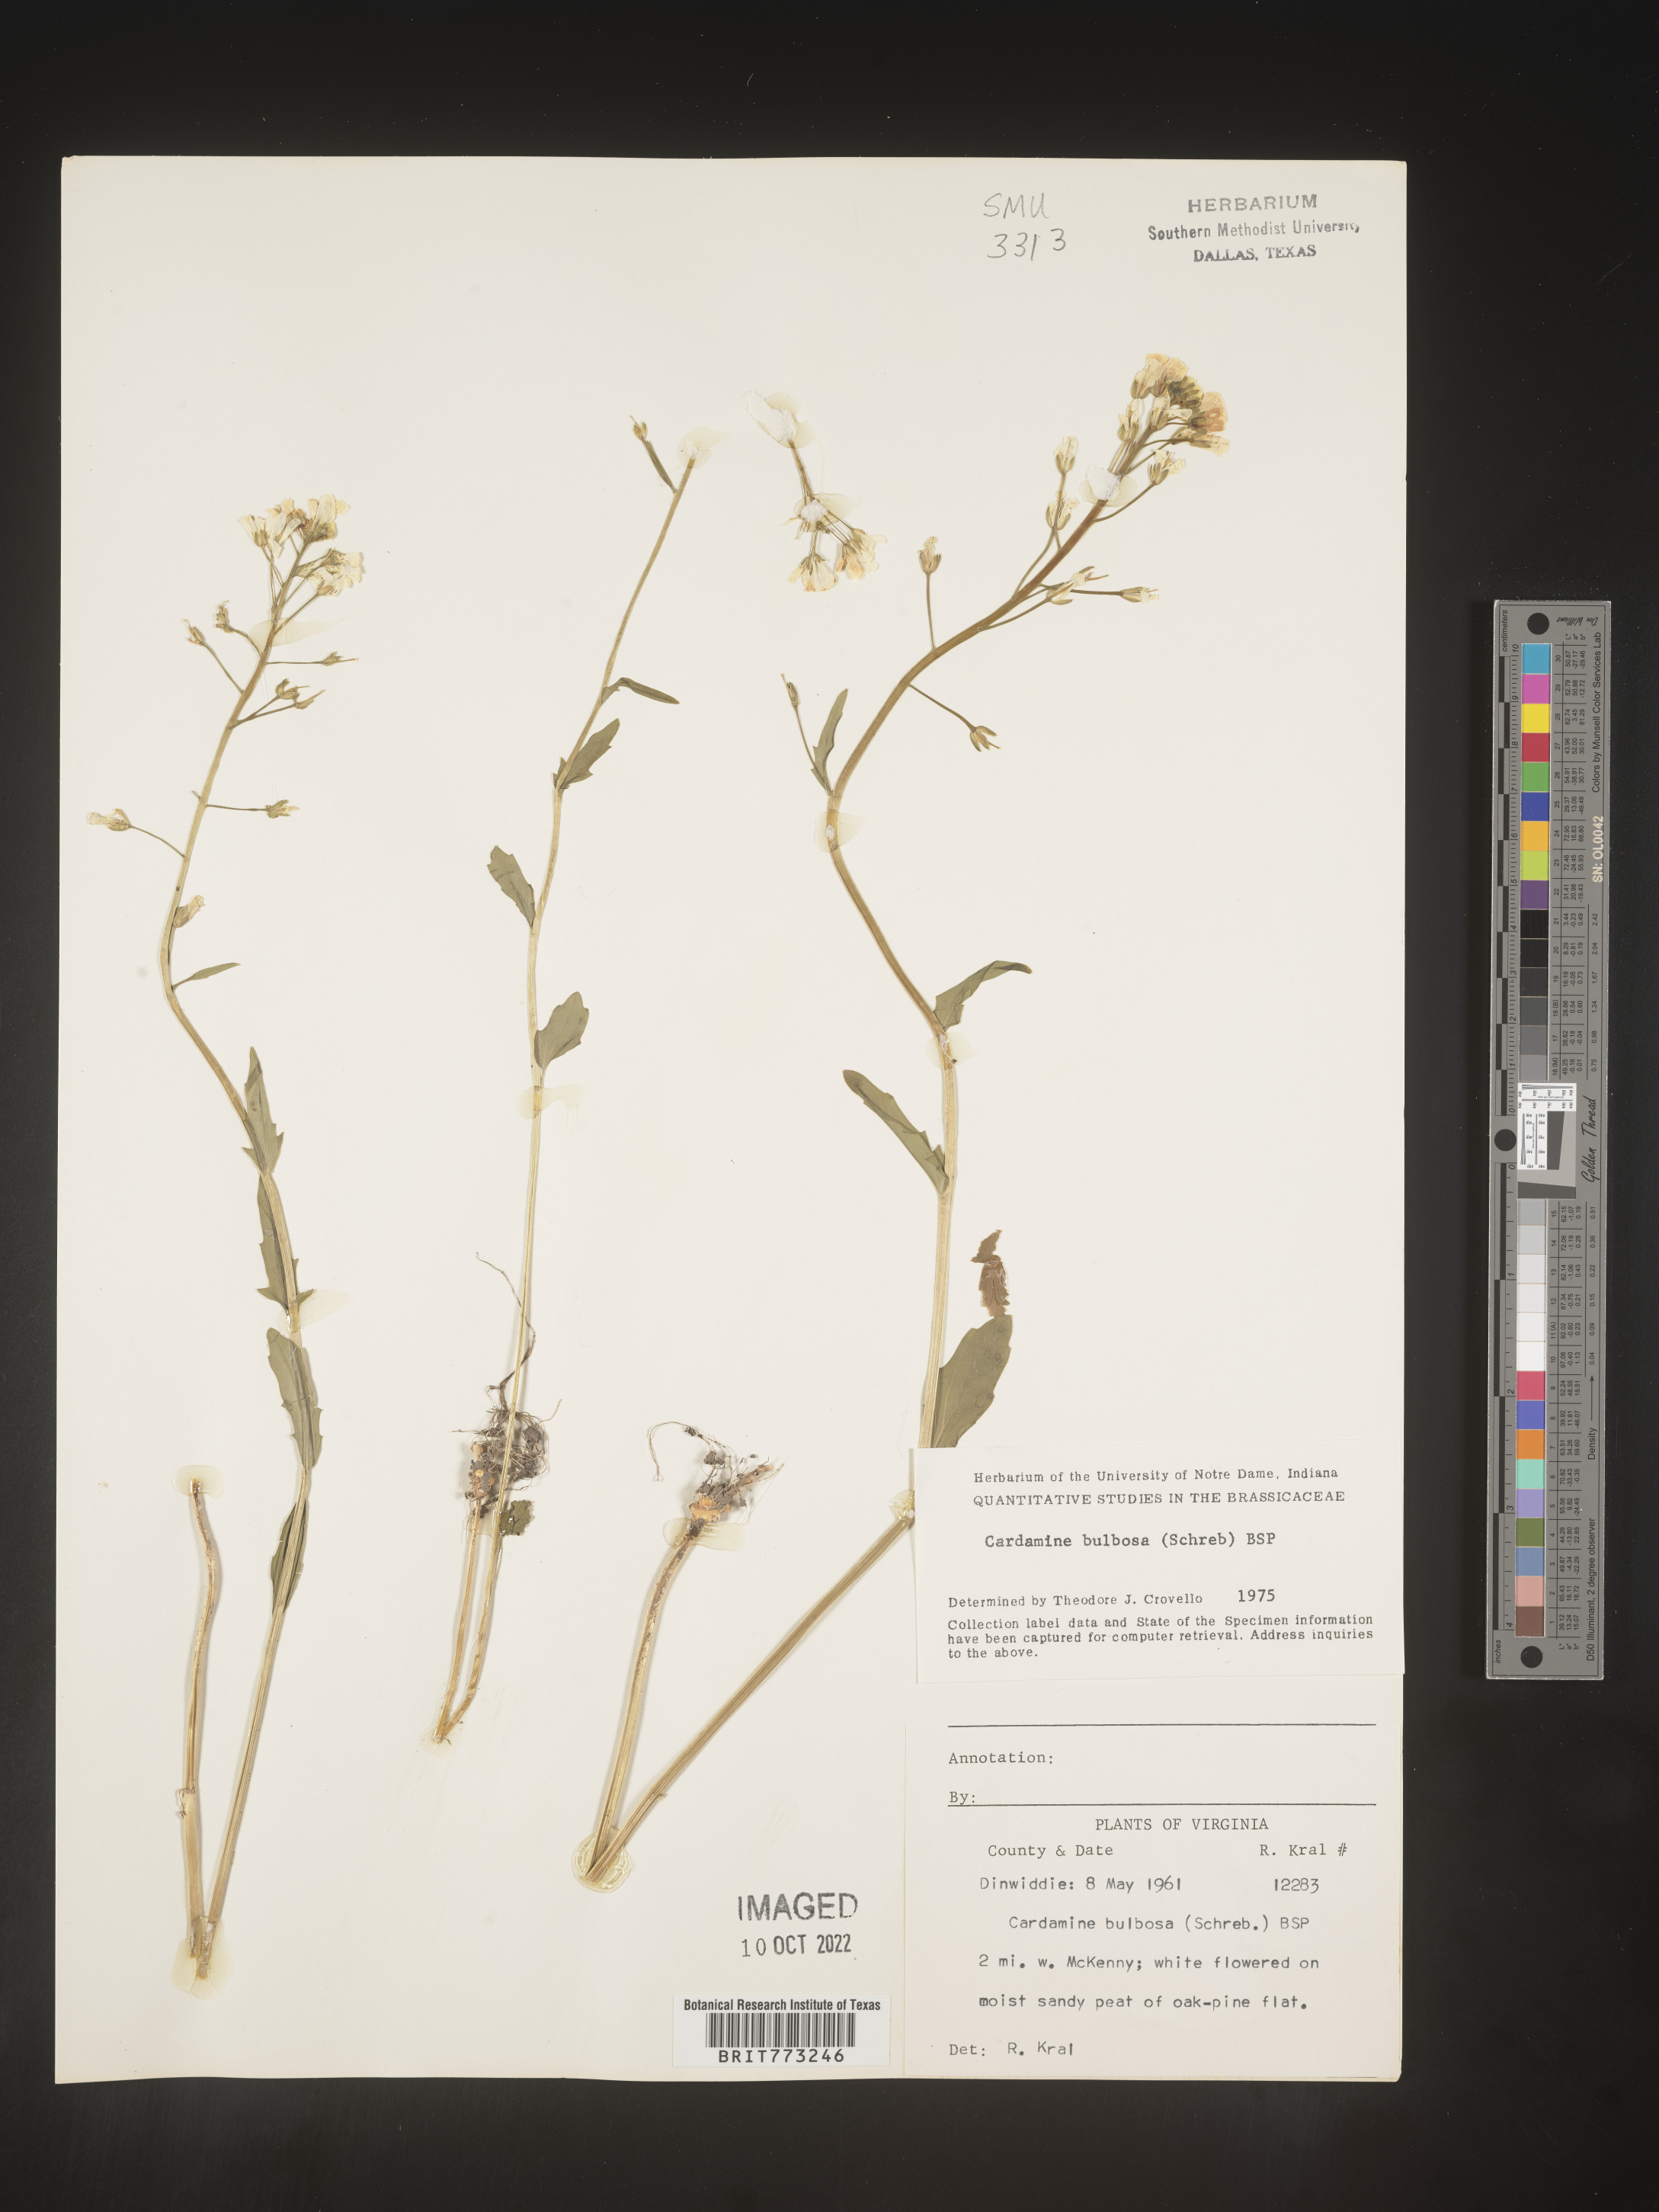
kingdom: Plantae
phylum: Tracheophyta
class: Magnoliopsida
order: Brassicales
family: Brassicaceae
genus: Cardamine
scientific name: Cardamine bulbosa
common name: Spring cress
